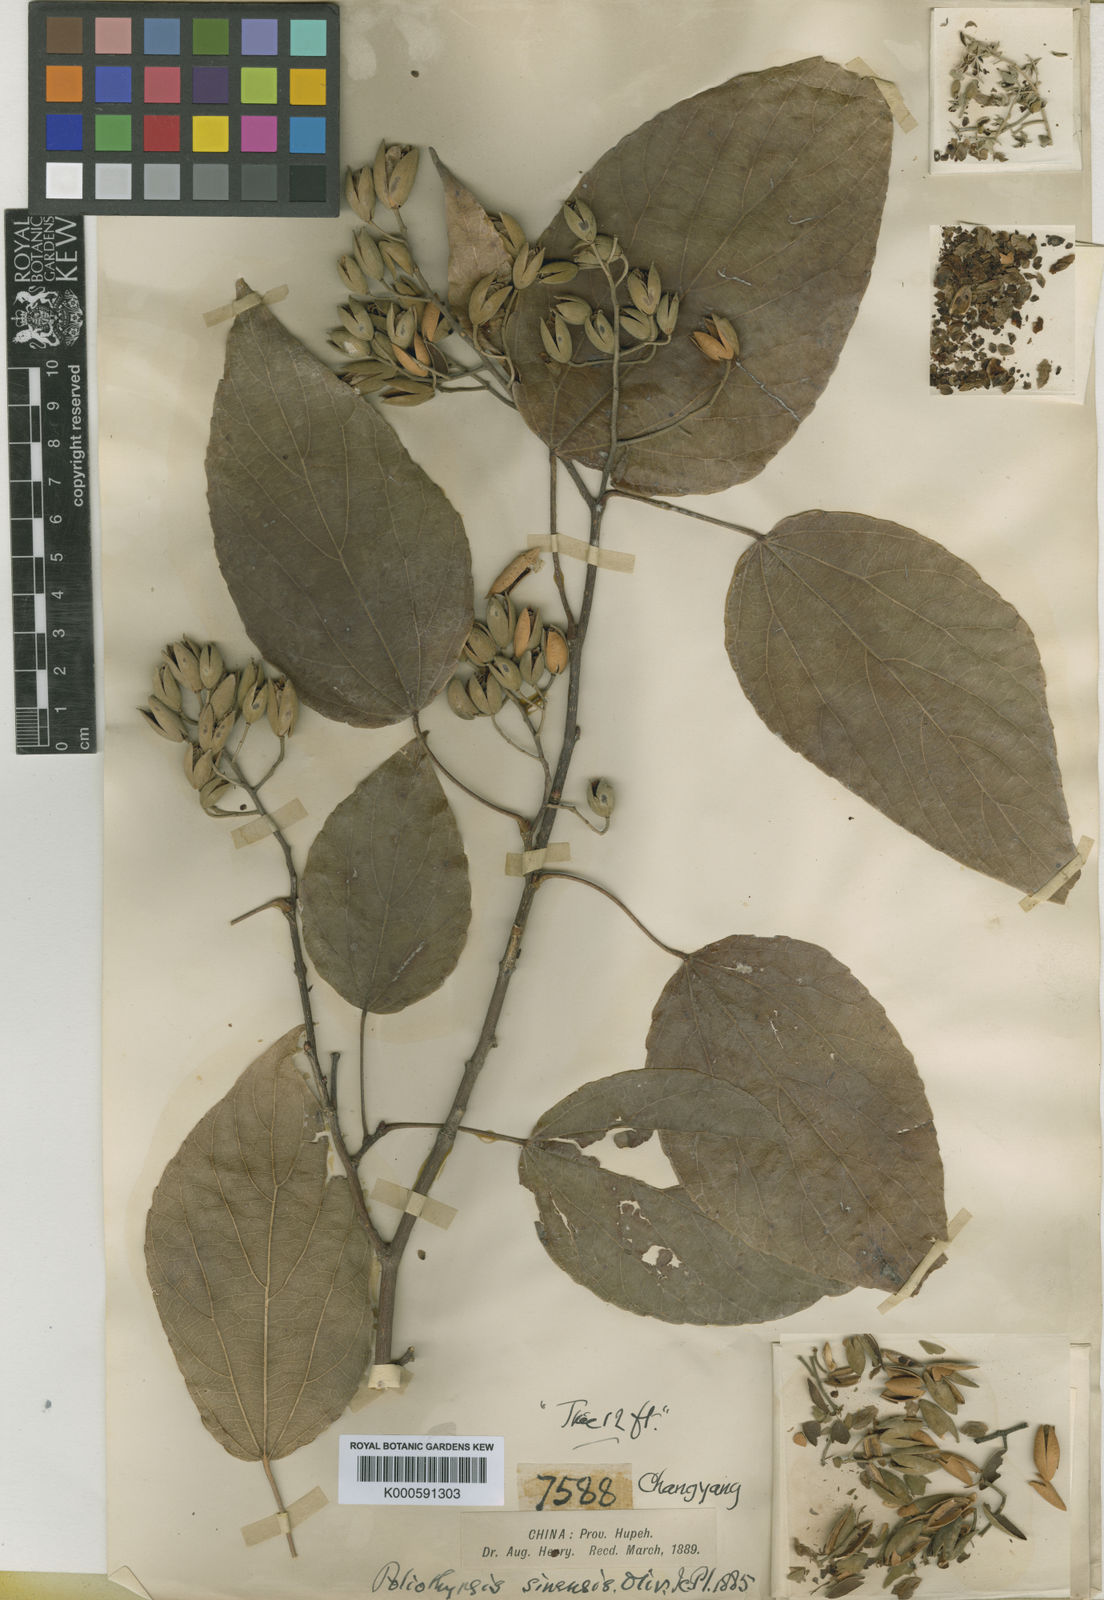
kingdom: Plantae
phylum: Tracheophyta
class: Magnoliopsida
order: Malpighiales
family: Salicaceae
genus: Poliothyrsis
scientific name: Poliothyrsis
